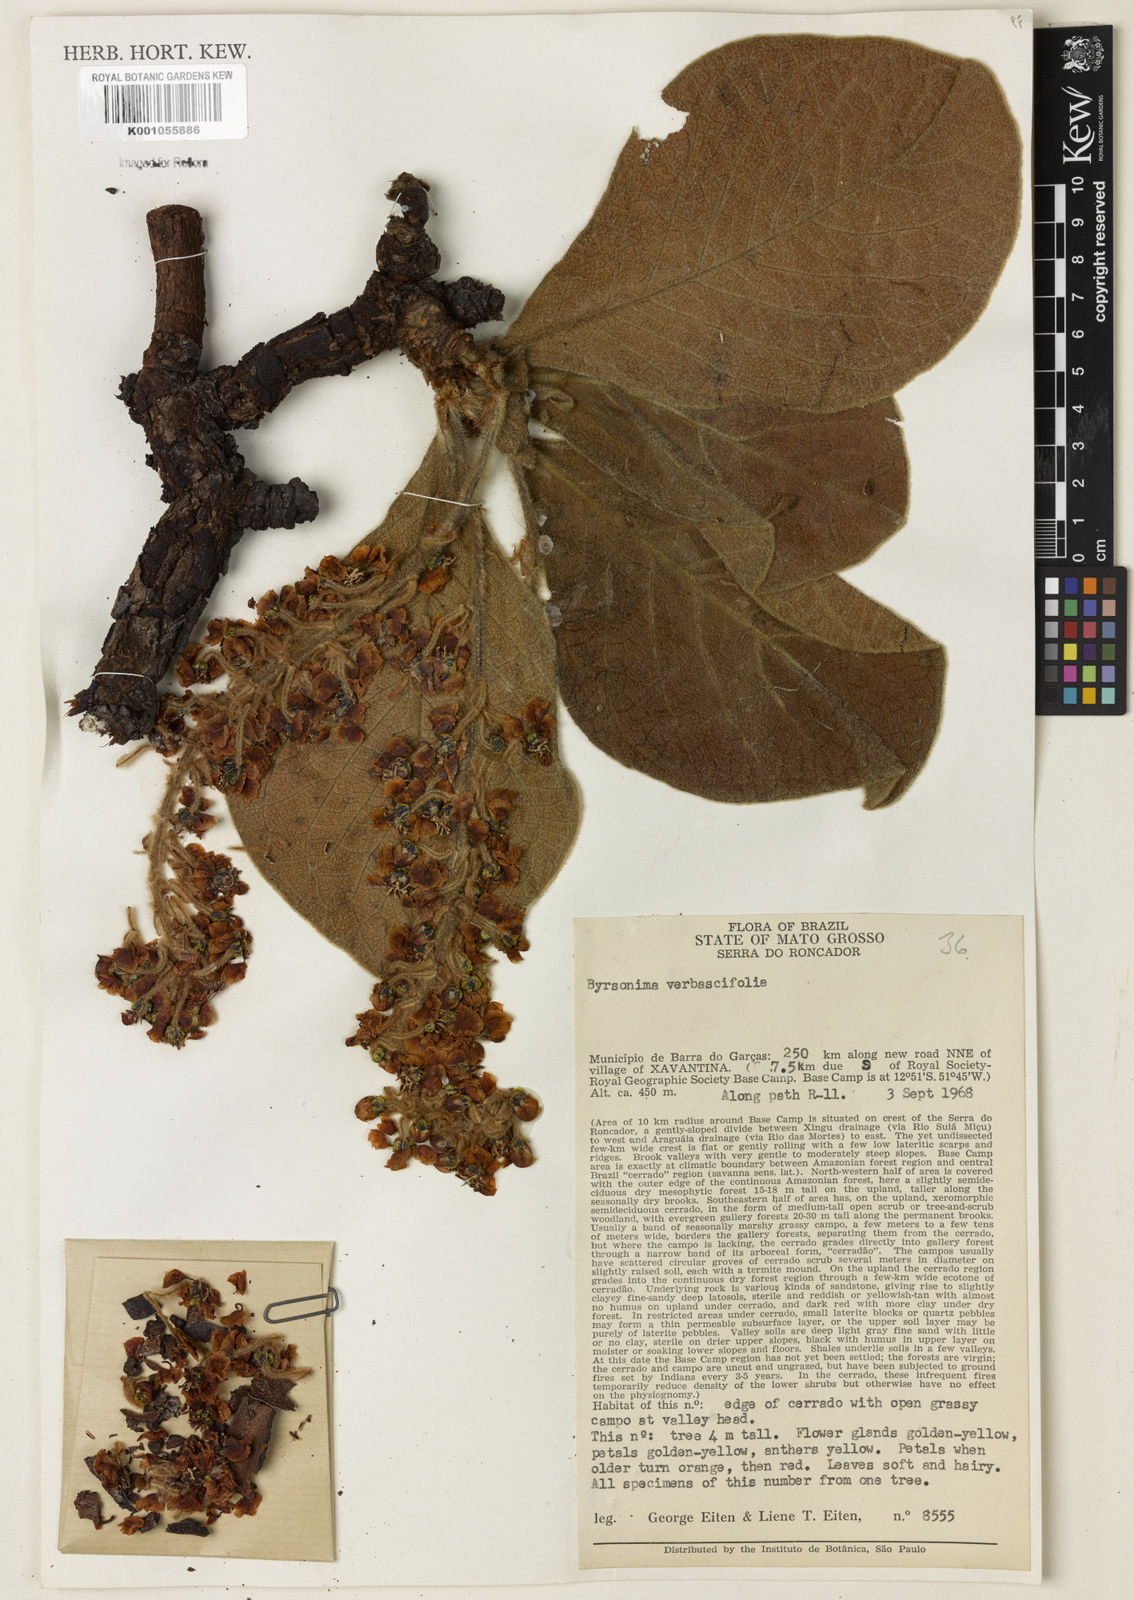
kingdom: Plantae
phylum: Tracheophyta
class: Magnoliopsida
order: Malpighiales
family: Malpighiaceae
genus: Byrsonima
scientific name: Byrsonima verbascifolia
